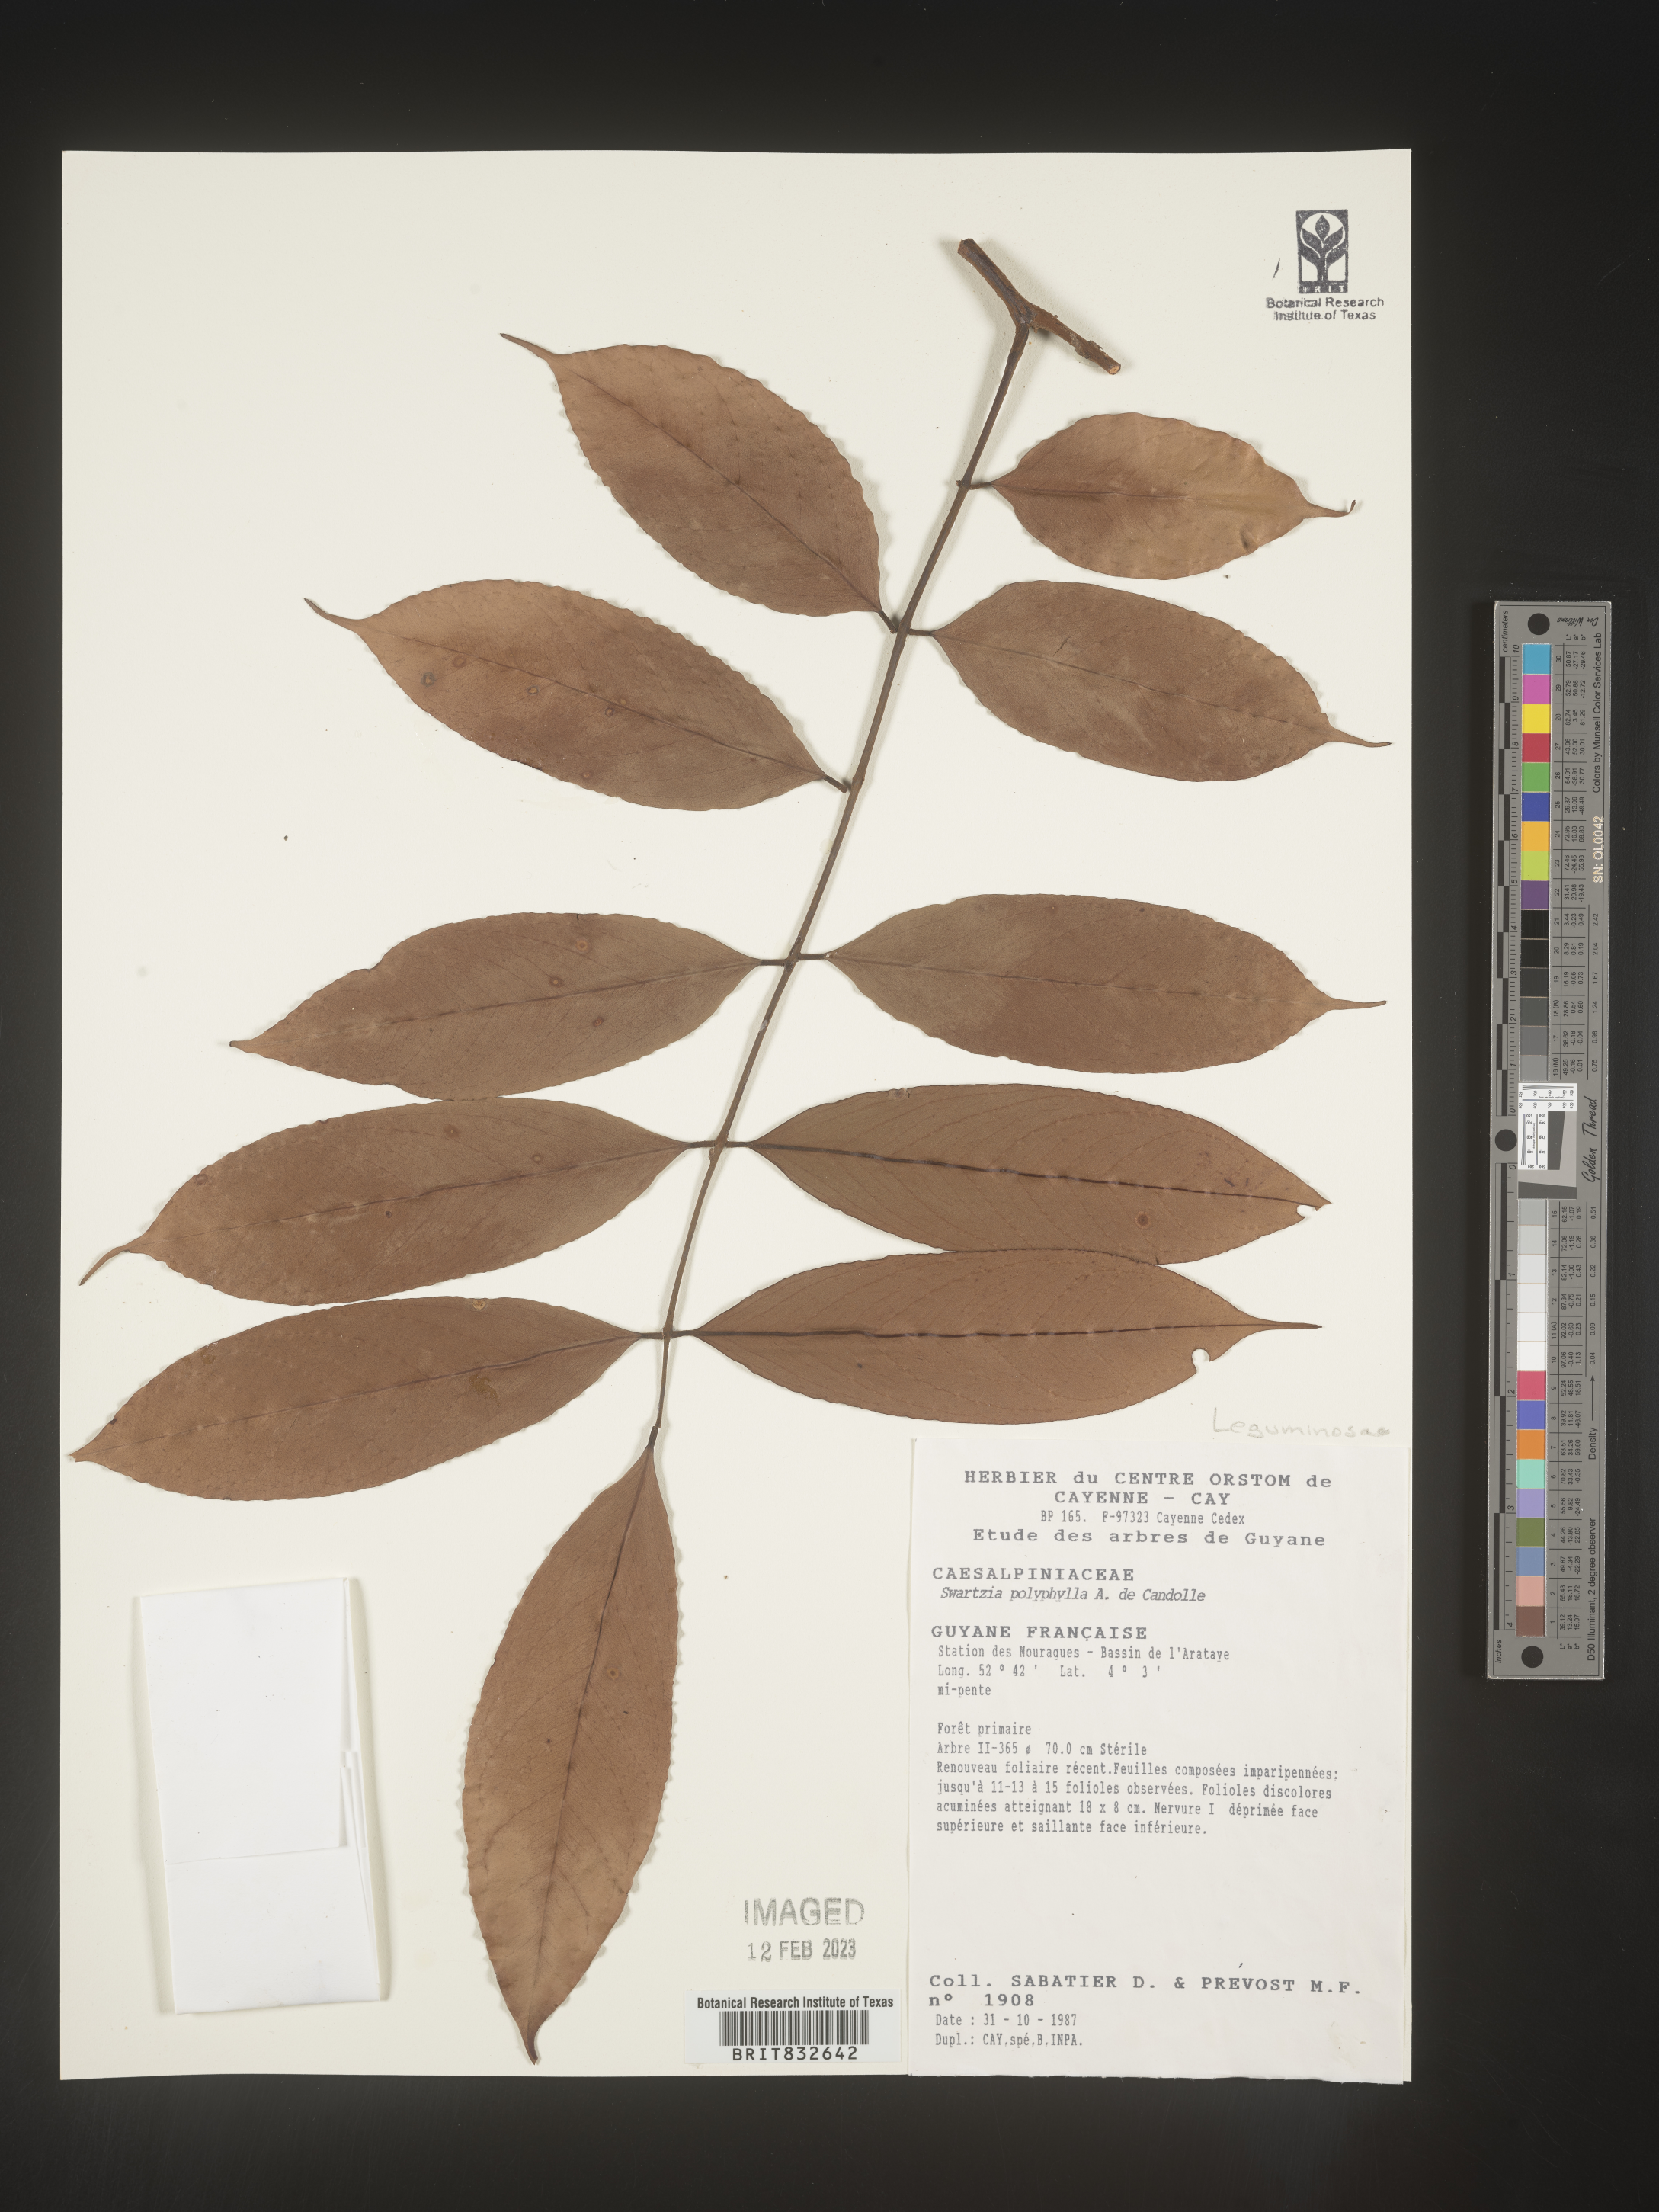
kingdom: Plantae
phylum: Tracheophyta
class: Magnoliopsida
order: Fabales
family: Fabaceae
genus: Swartzia
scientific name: Swartzia
